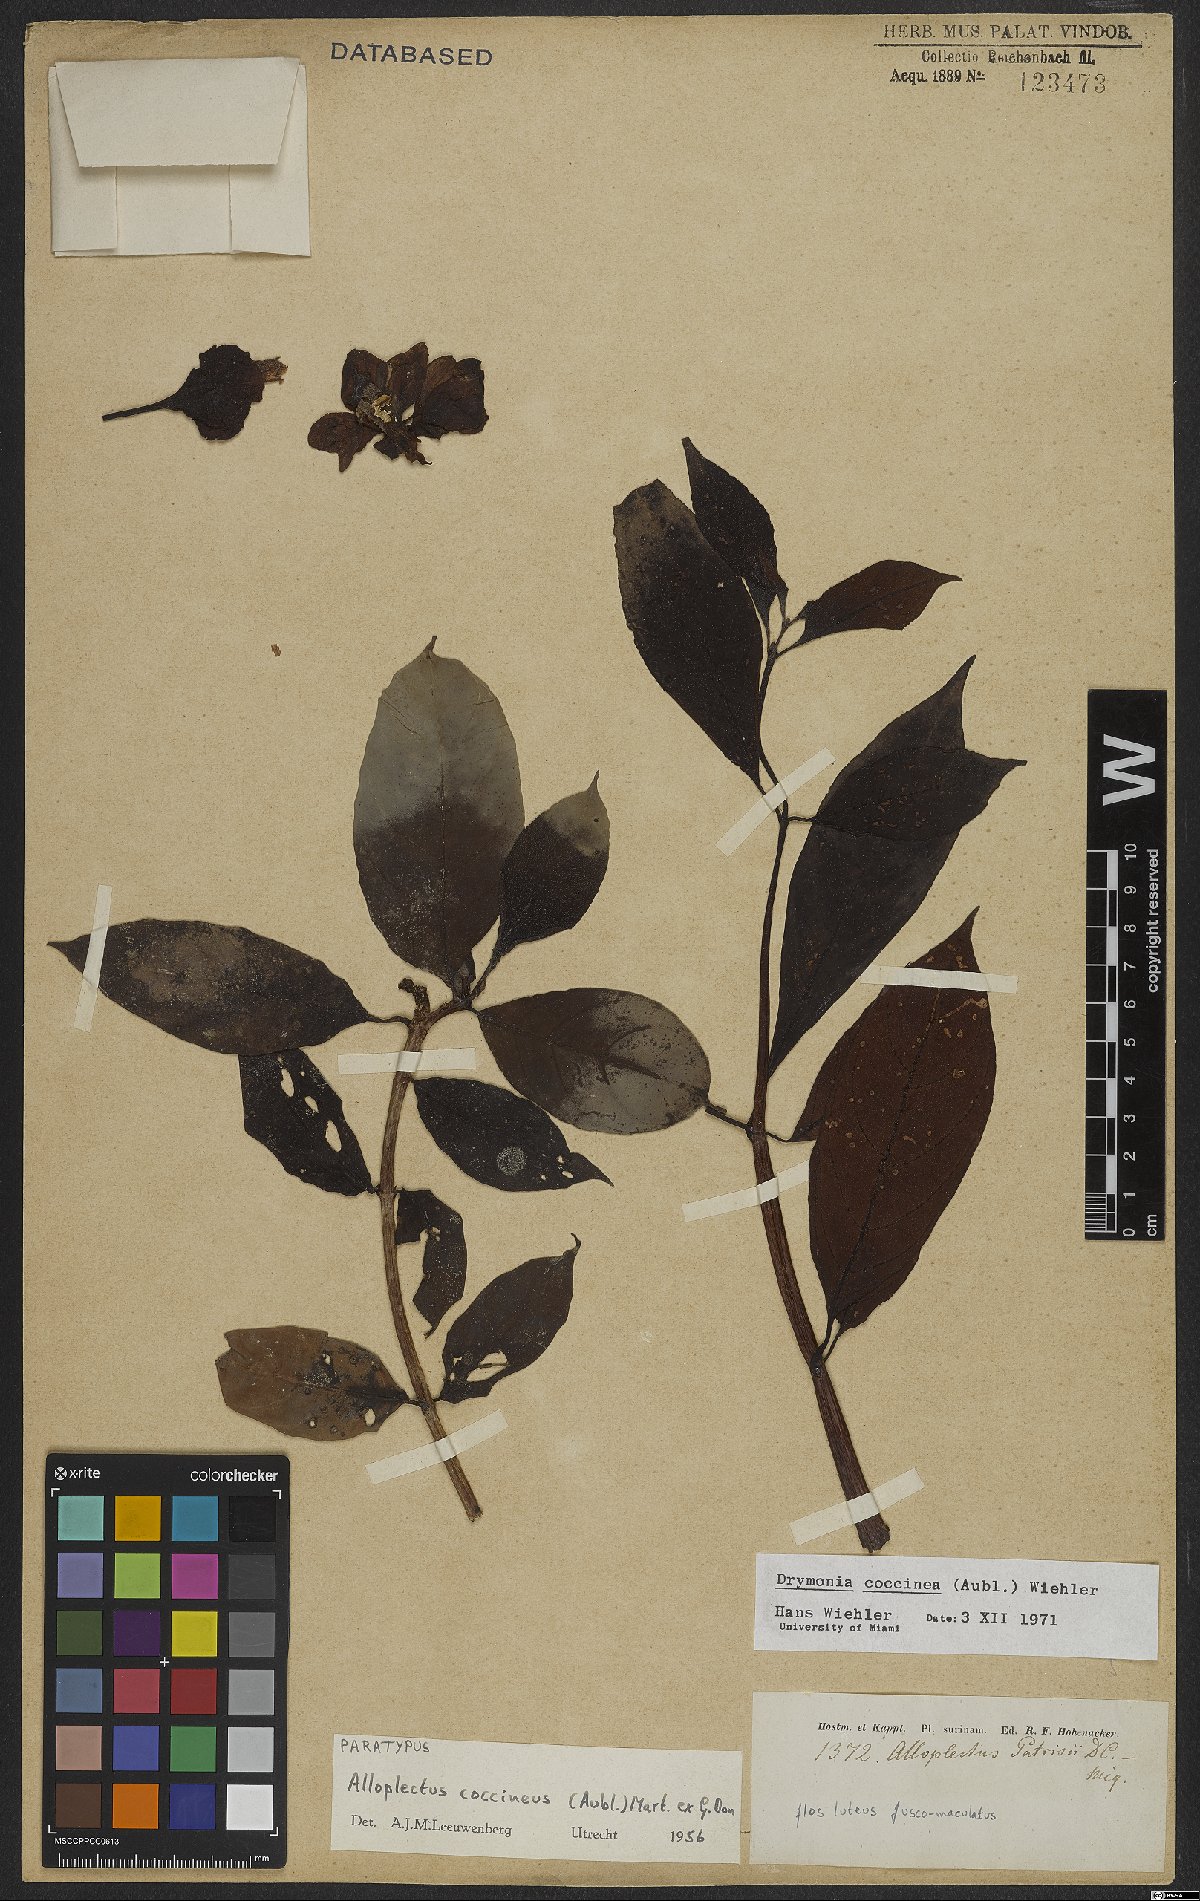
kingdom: Plantae
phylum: Tracheophyta
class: Magnoliopsida
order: Lamiales
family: Gesneriaceae
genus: Drymonia
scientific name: Drymonia coccinea
